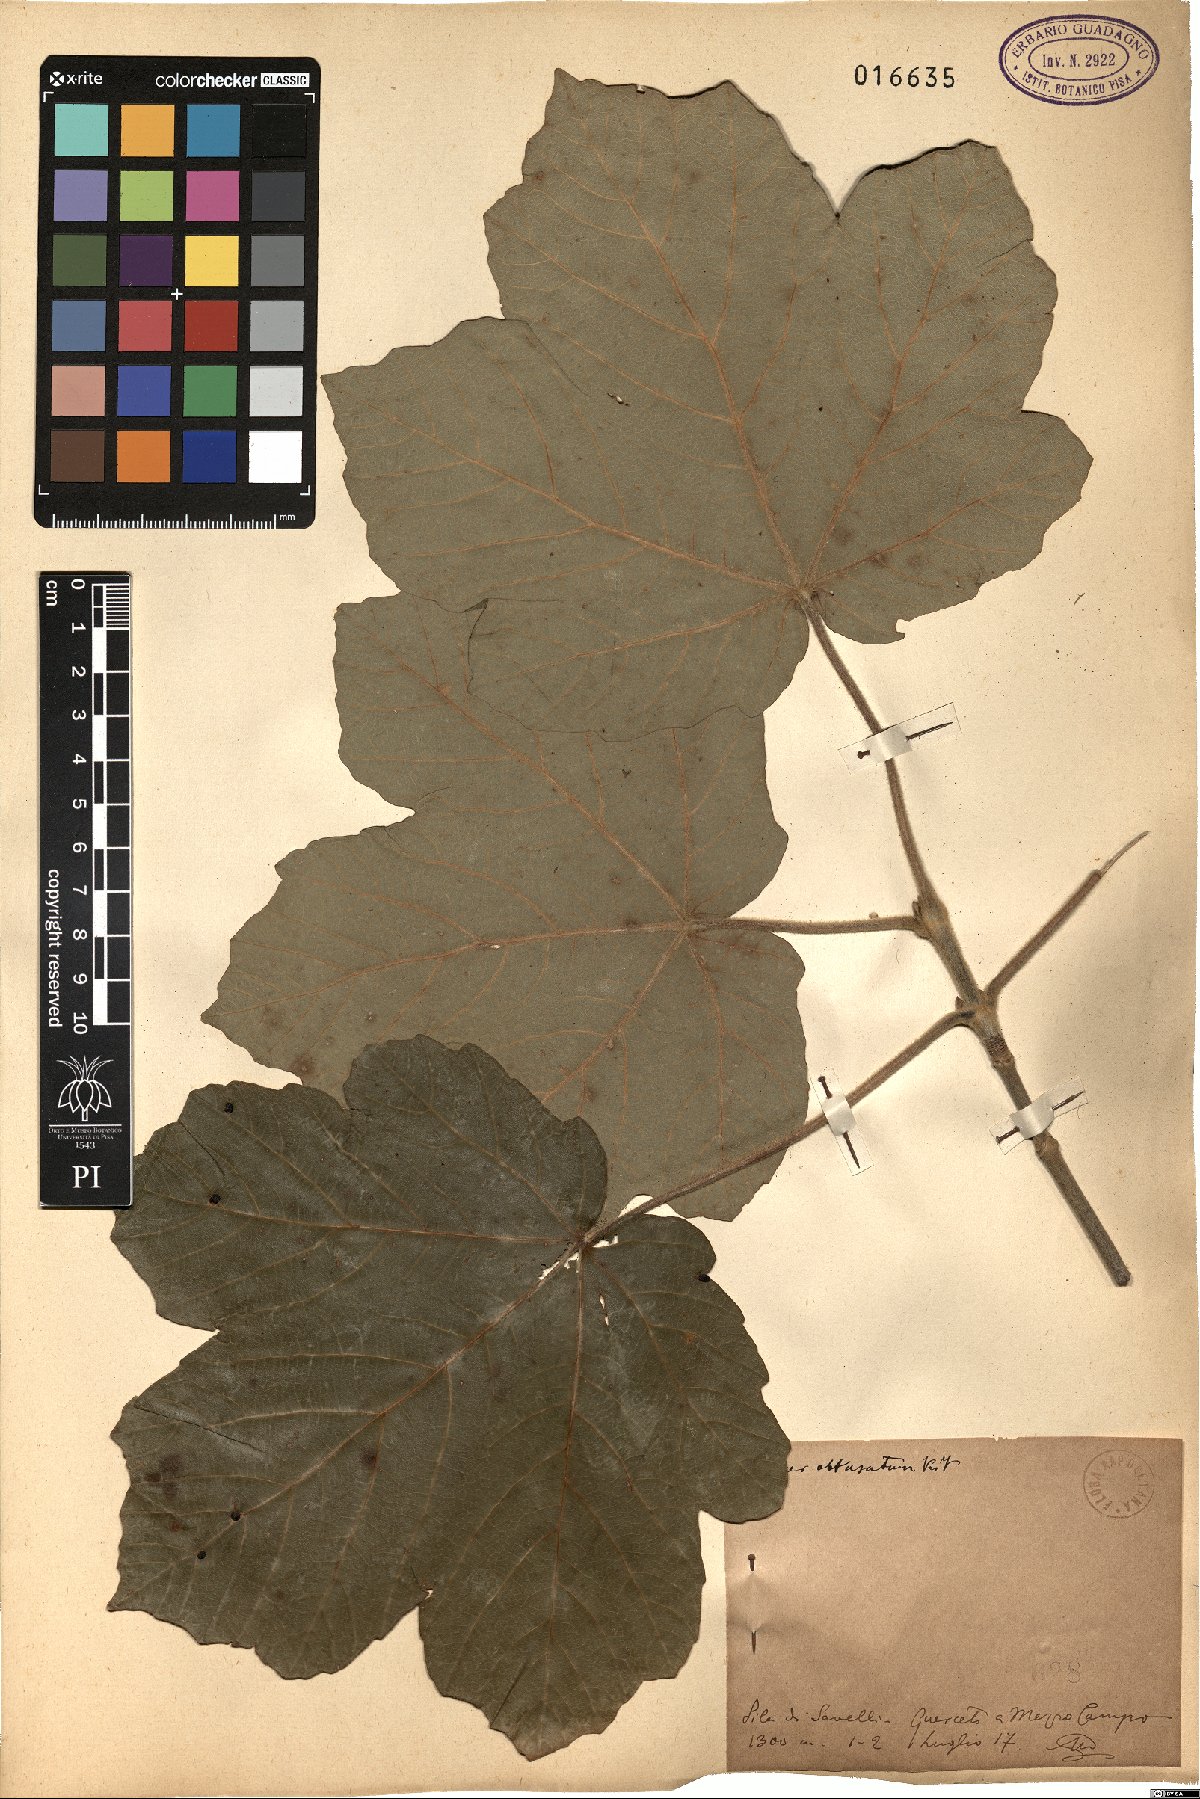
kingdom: Plantae
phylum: Tracheophyta
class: Magnoliopsida
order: Sapindales
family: Sapindaceae
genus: Acer
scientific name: Acer obtusatum
